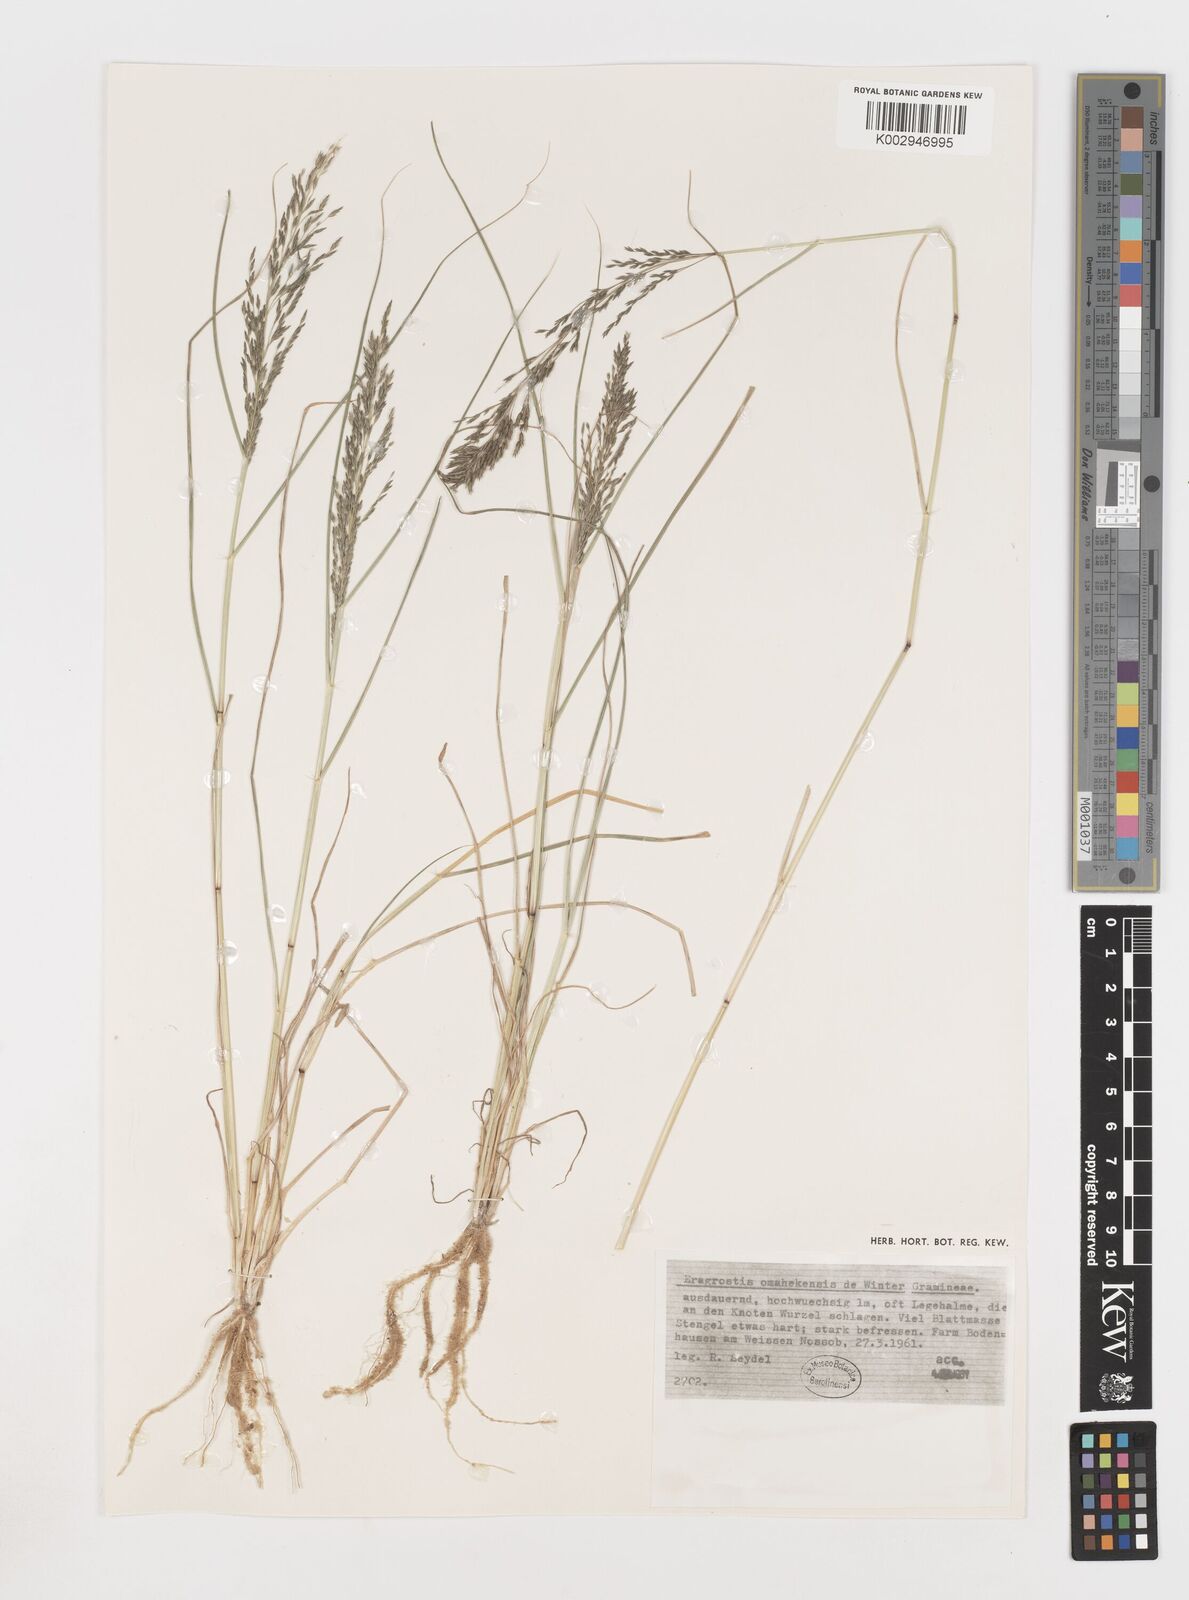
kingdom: Plantae
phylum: Tracheophyta
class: Liliopsida
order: Poales
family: Poaceae
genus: Eragrostis
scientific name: Eragrostis omahekensis
